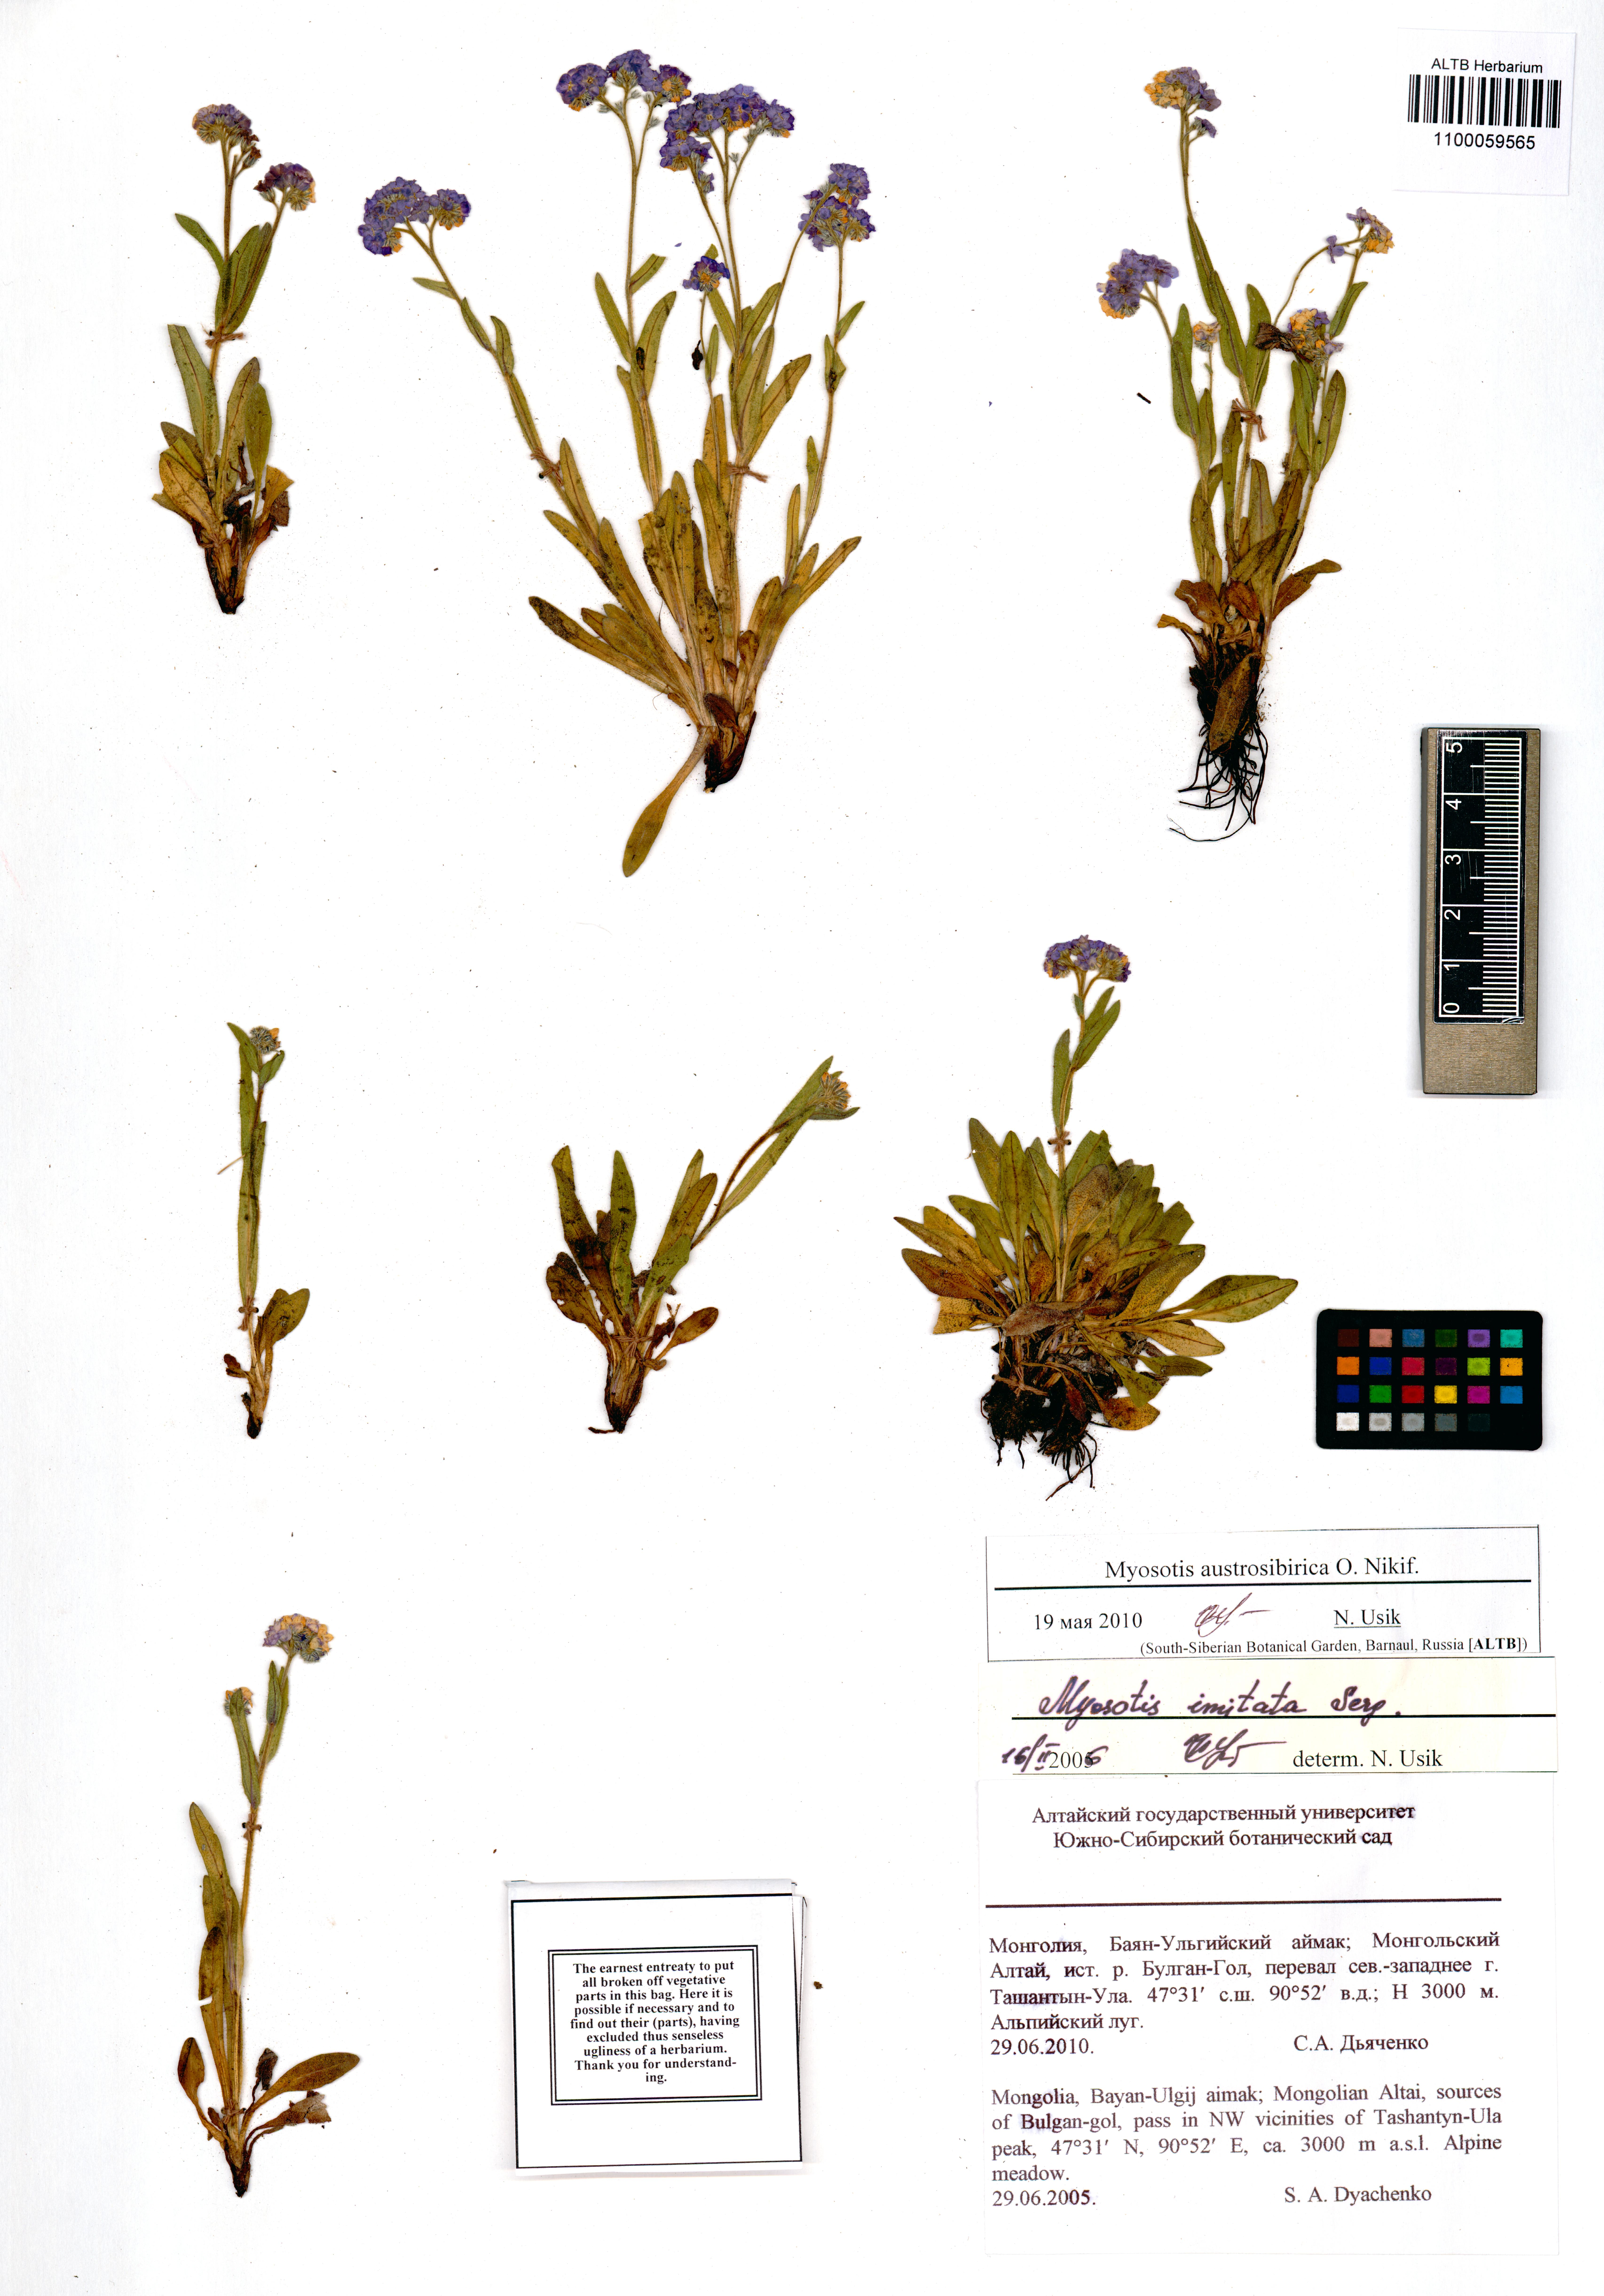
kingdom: Plantae
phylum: Tracheophyta
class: Magnoliopsida
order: Boraginales
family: Boraginaceae
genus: Myosotis
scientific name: Myosotis austrosibirica
